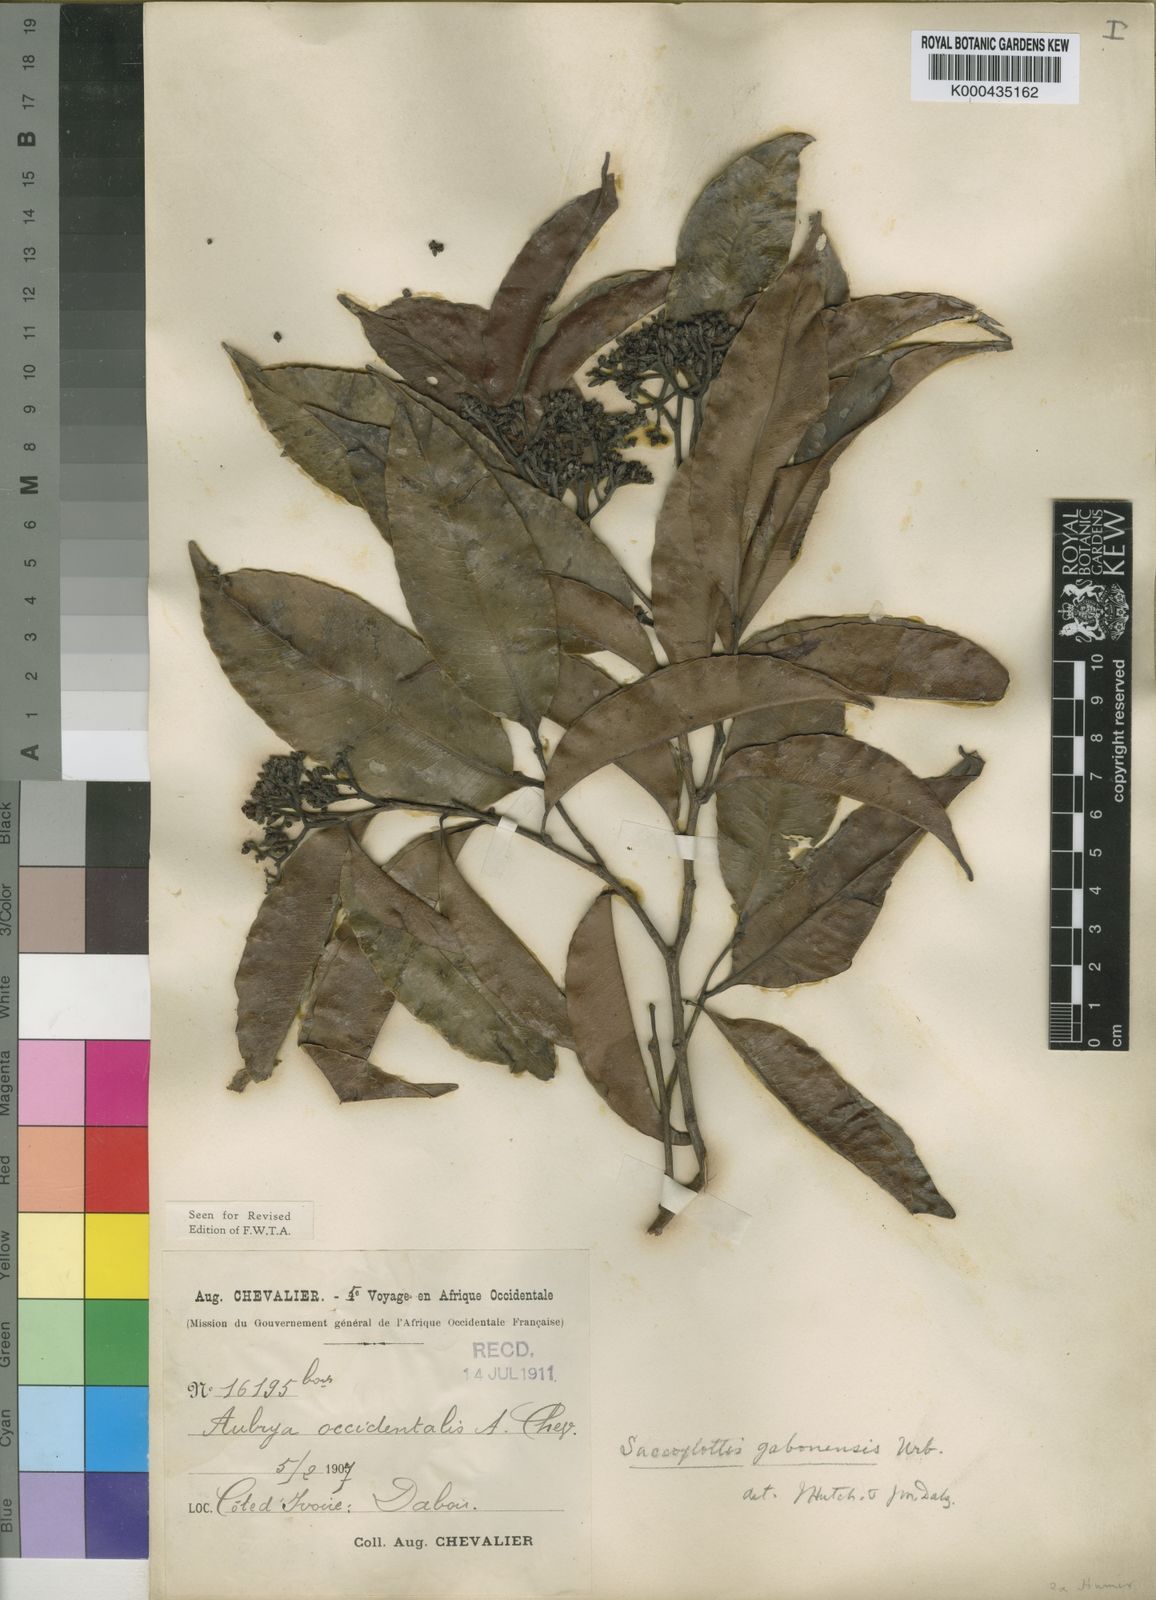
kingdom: Plantae
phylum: Tracheophyta
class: Magnoliopsida
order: Malpighiales
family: Humiriaceae
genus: Sacoglottis
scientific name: Sacoglottis gabonensis
